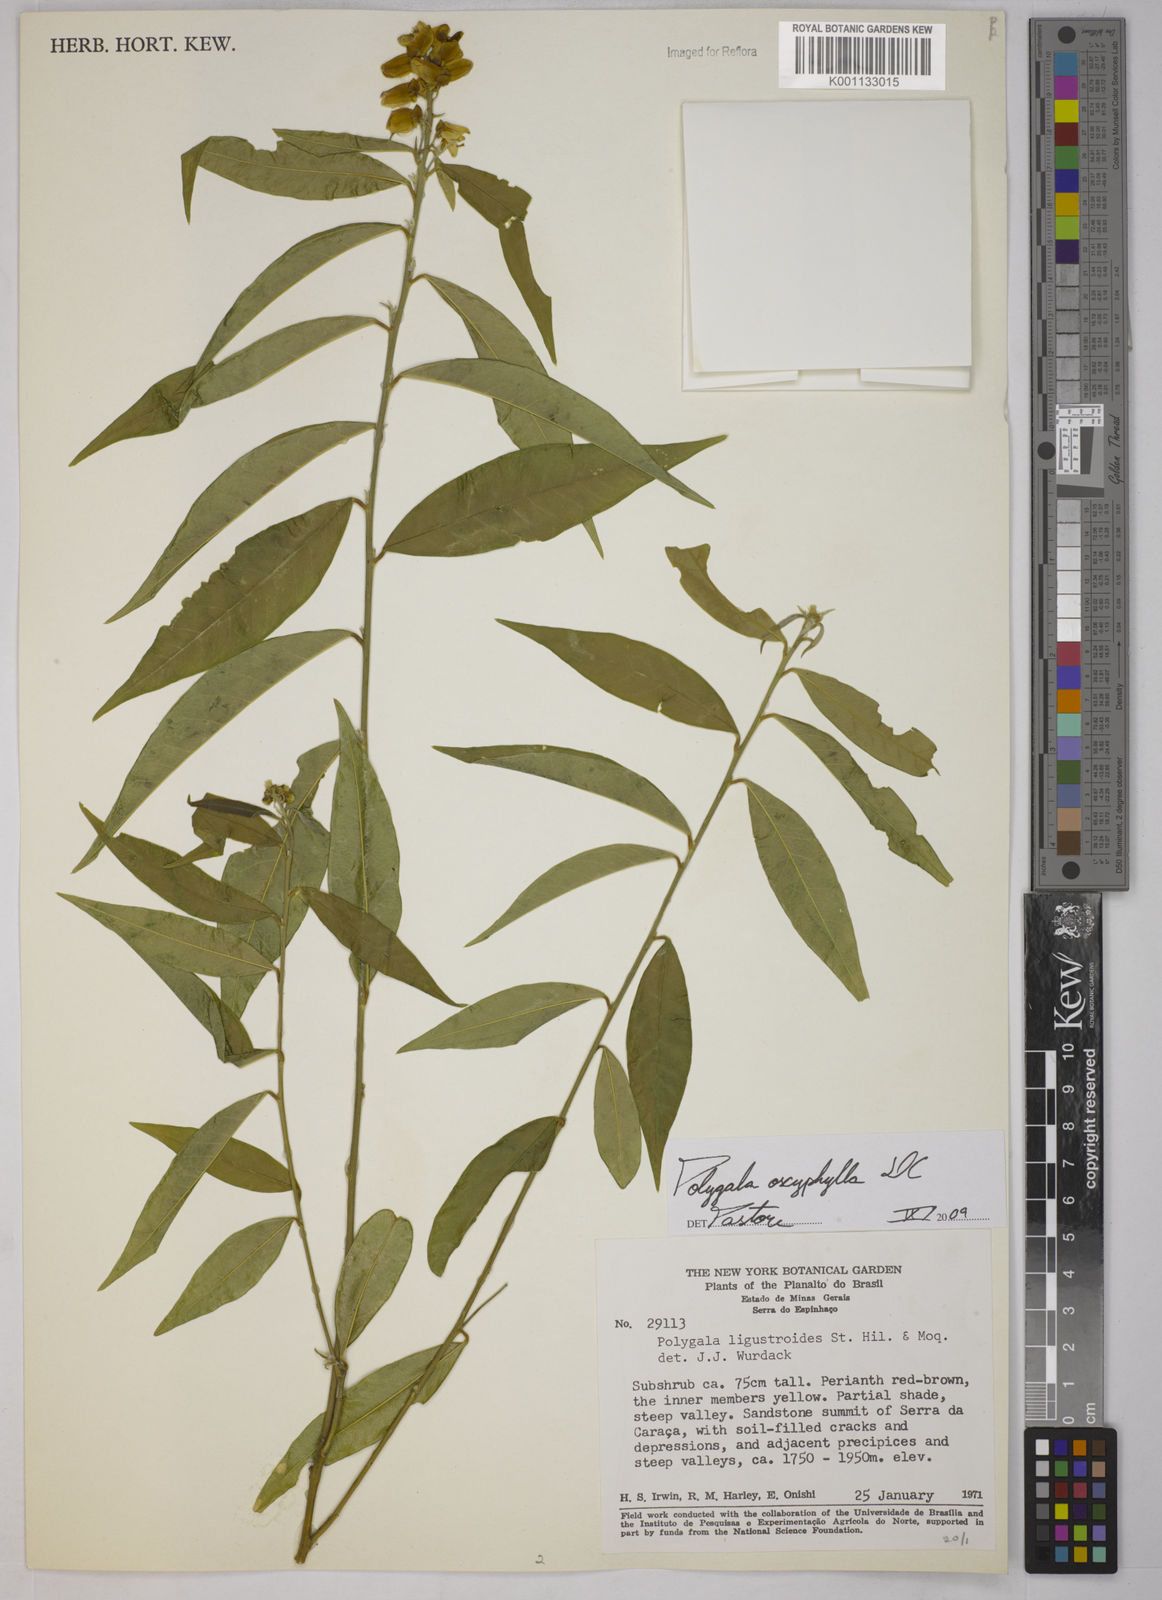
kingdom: Plantae
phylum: Tracheophyta
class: Magnoliopsida
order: Fabales
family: Polygalaceae
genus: Caamembeca
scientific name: Caamembeca oxyphylla
